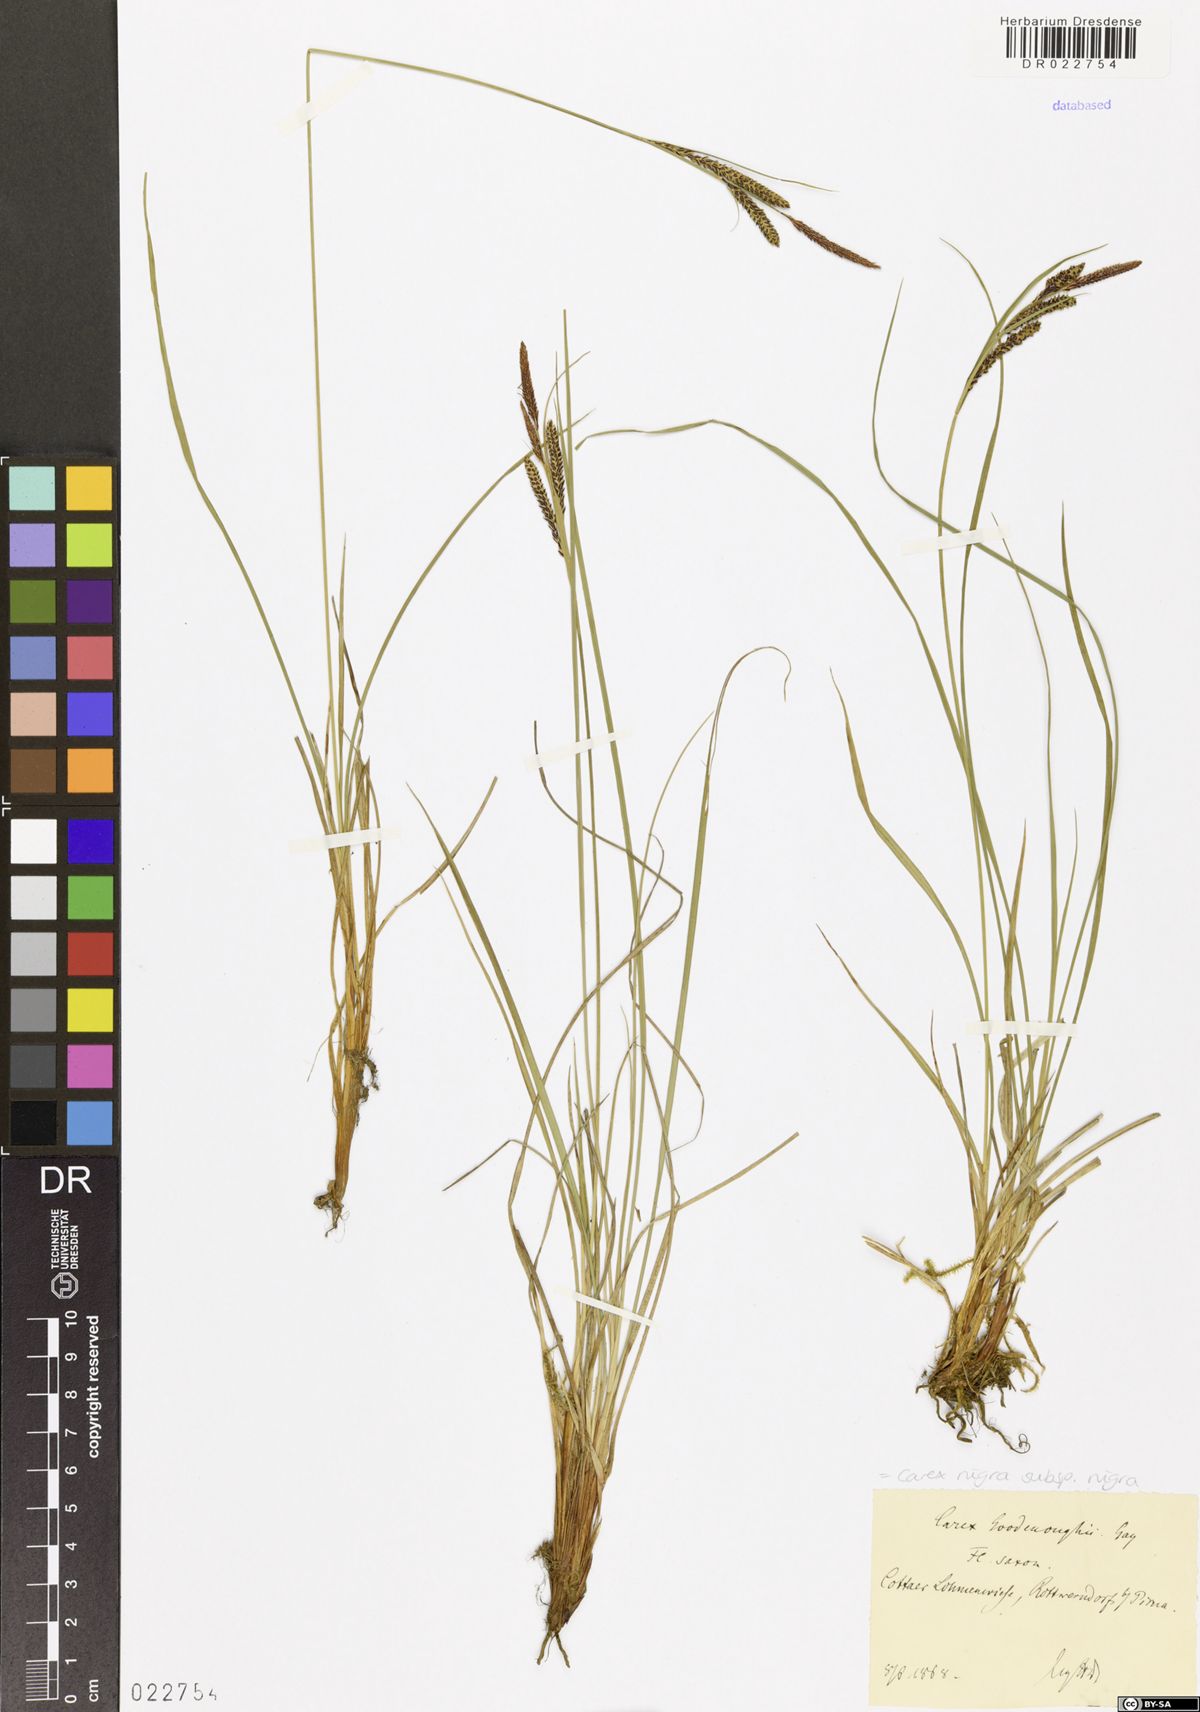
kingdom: Plantae
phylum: Tracheophyta
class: Liliopsida
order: Poales
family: Cyperaceae
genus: Carex
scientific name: Carex nigra
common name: Common sedge
